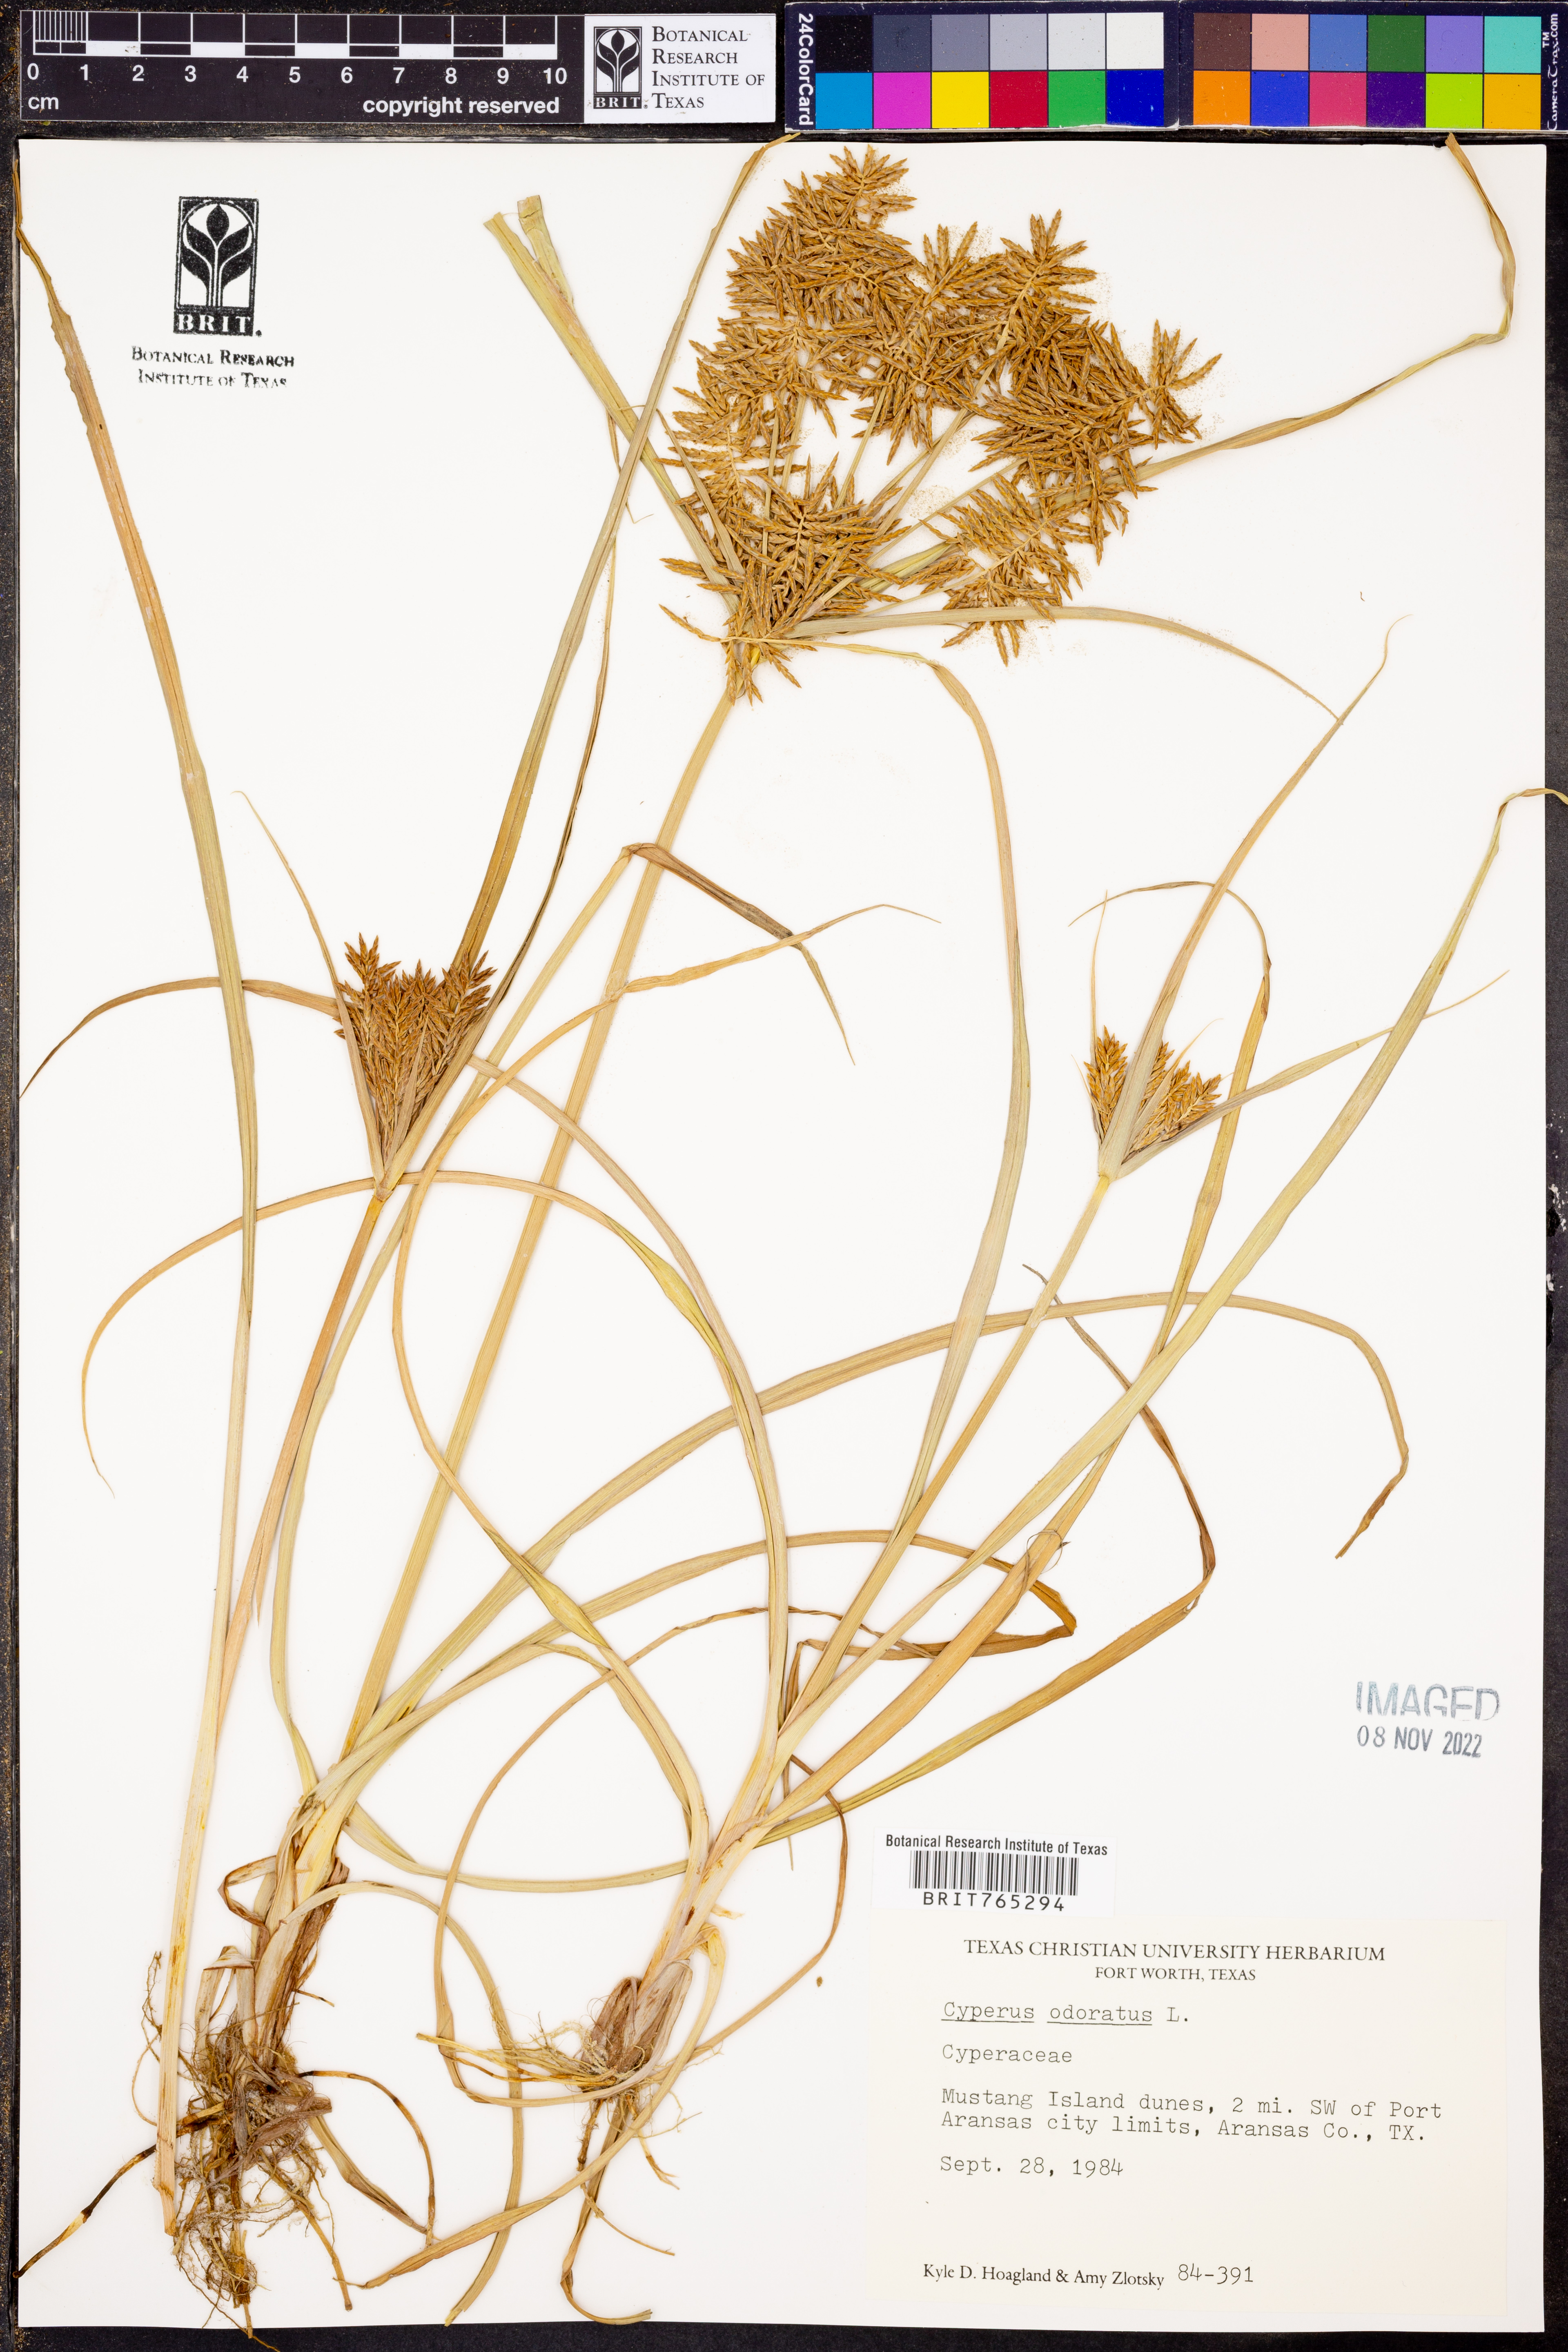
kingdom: Plantae
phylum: Tracheophyta
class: Liliopsida
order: Poales
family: Cyperaceae
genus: Cyperus
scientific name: Cyperus odoratus
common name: Fragrant flatsedge
